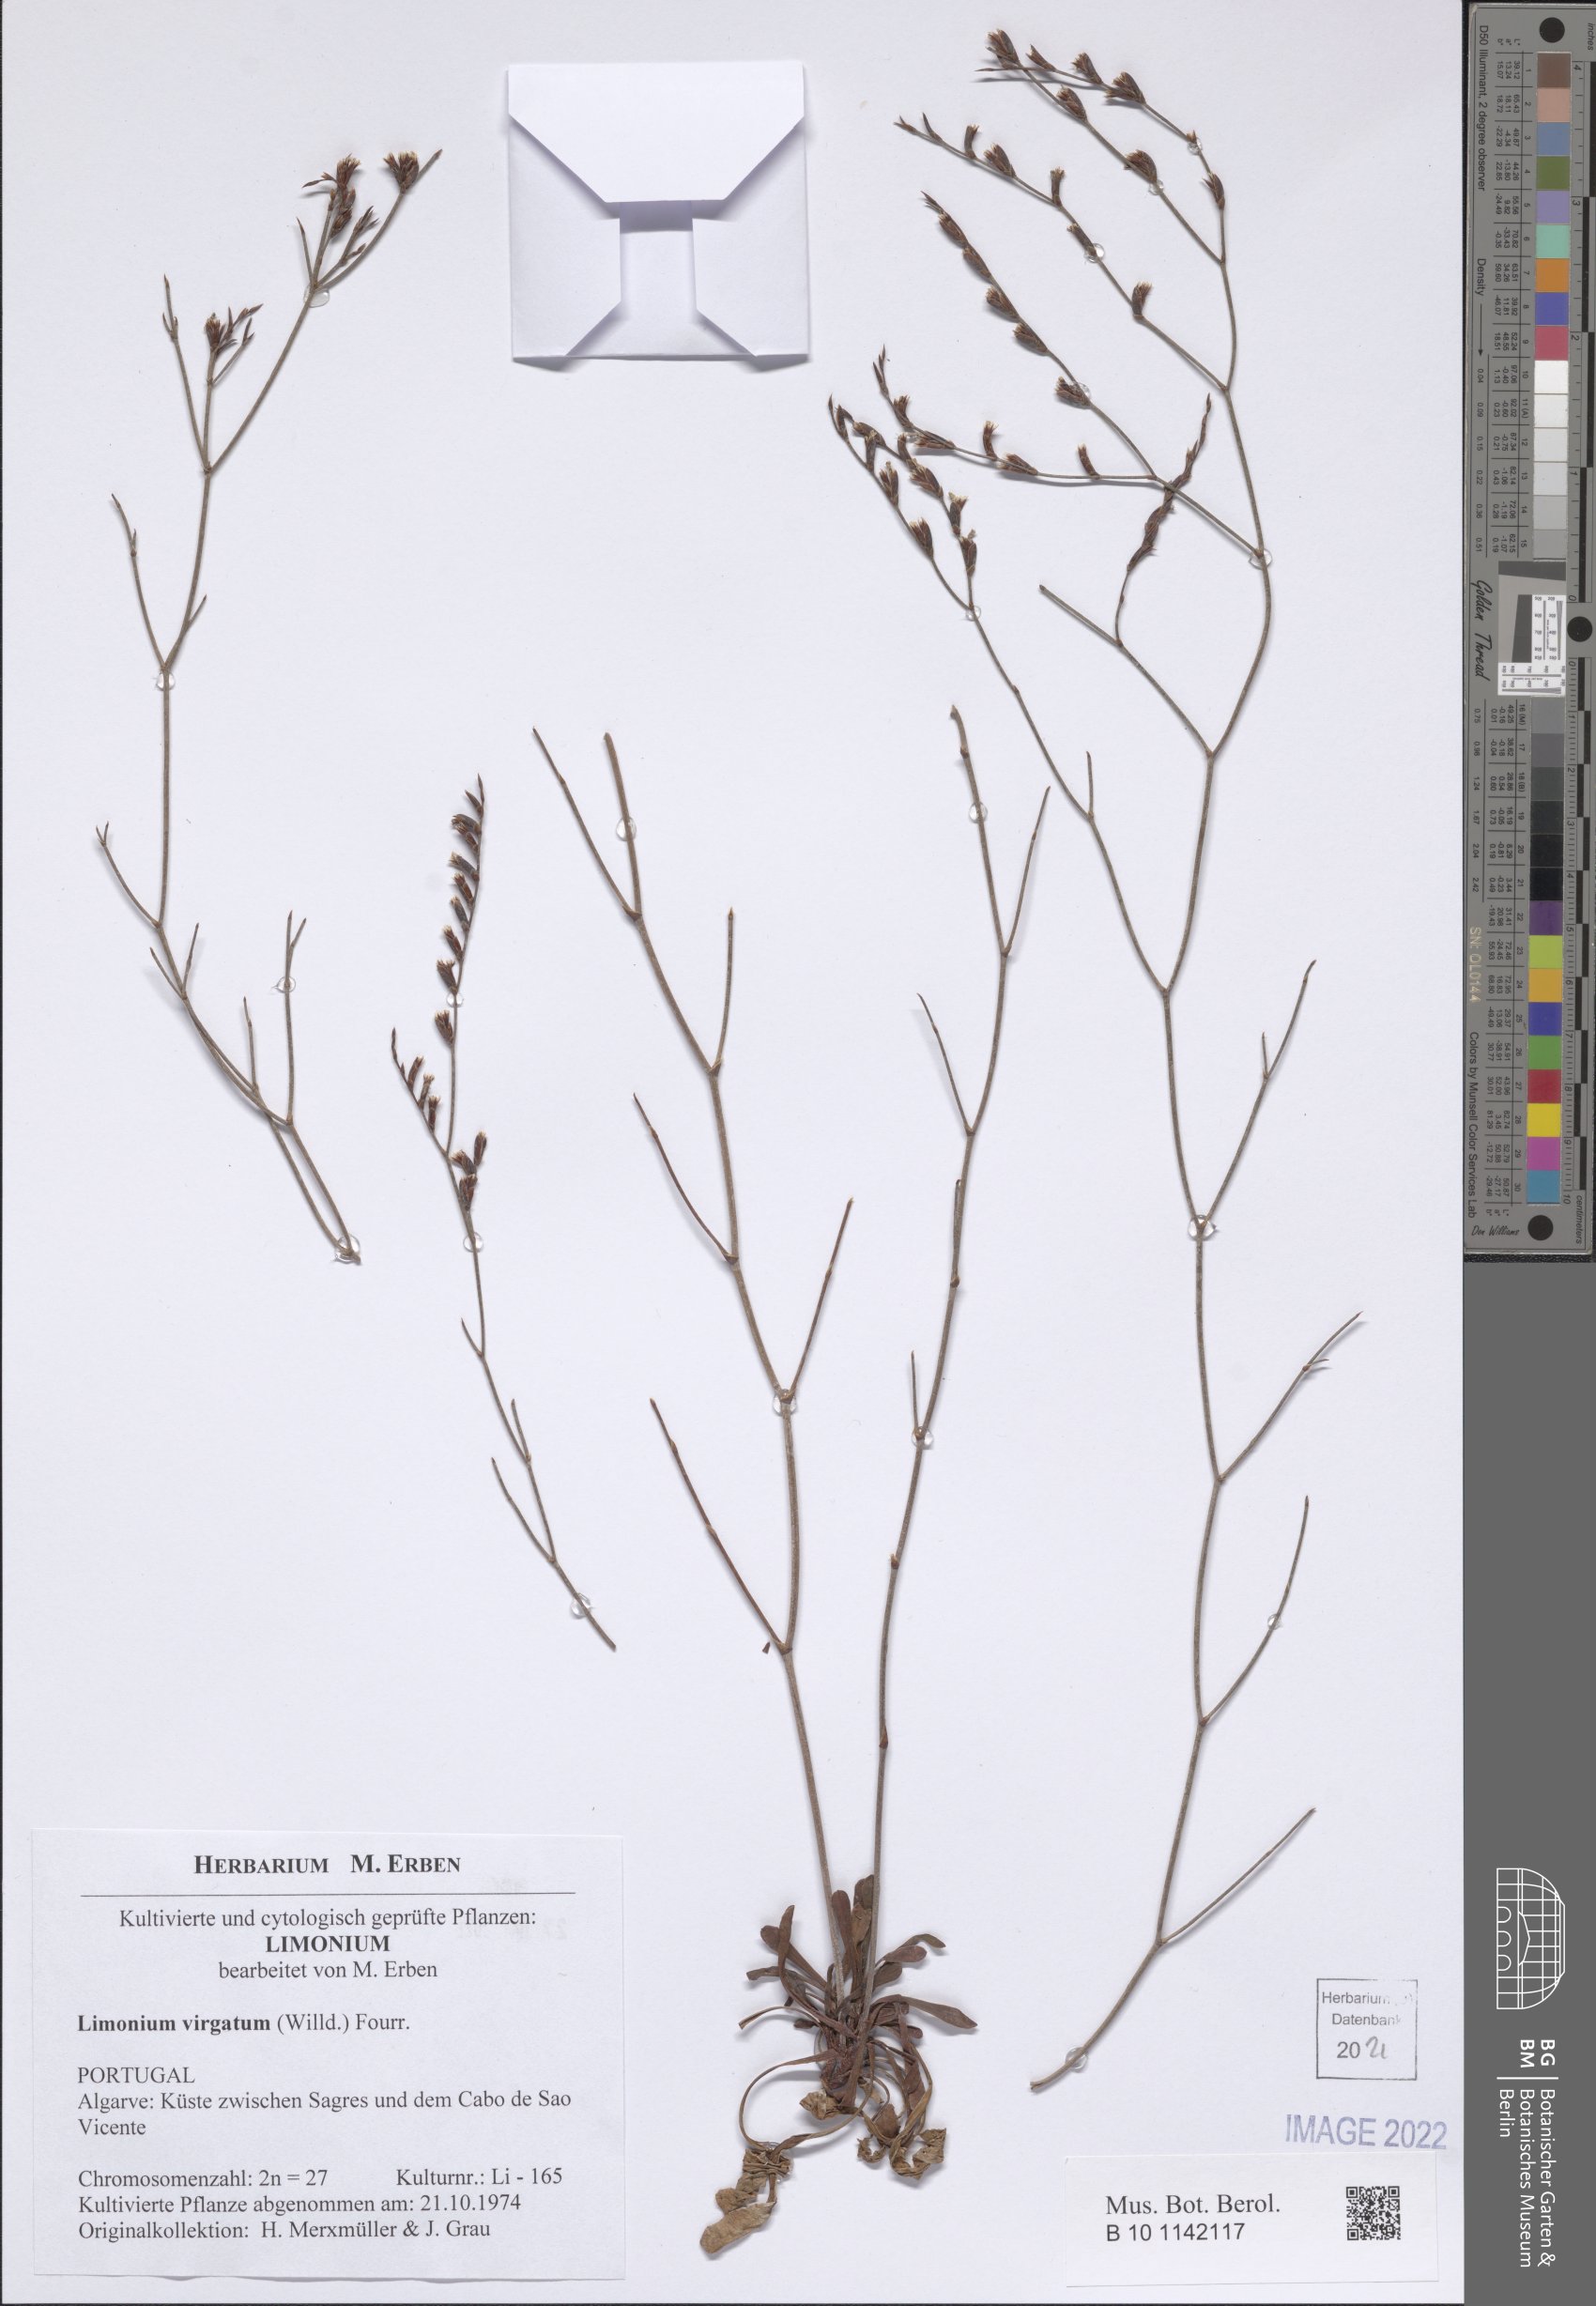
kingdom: Plantae
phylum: Tracheophyta
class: Magnoliopsida
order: Caryophyllales
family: Plumbaginaceae
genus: Limonium
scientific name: Limonium virgatum
